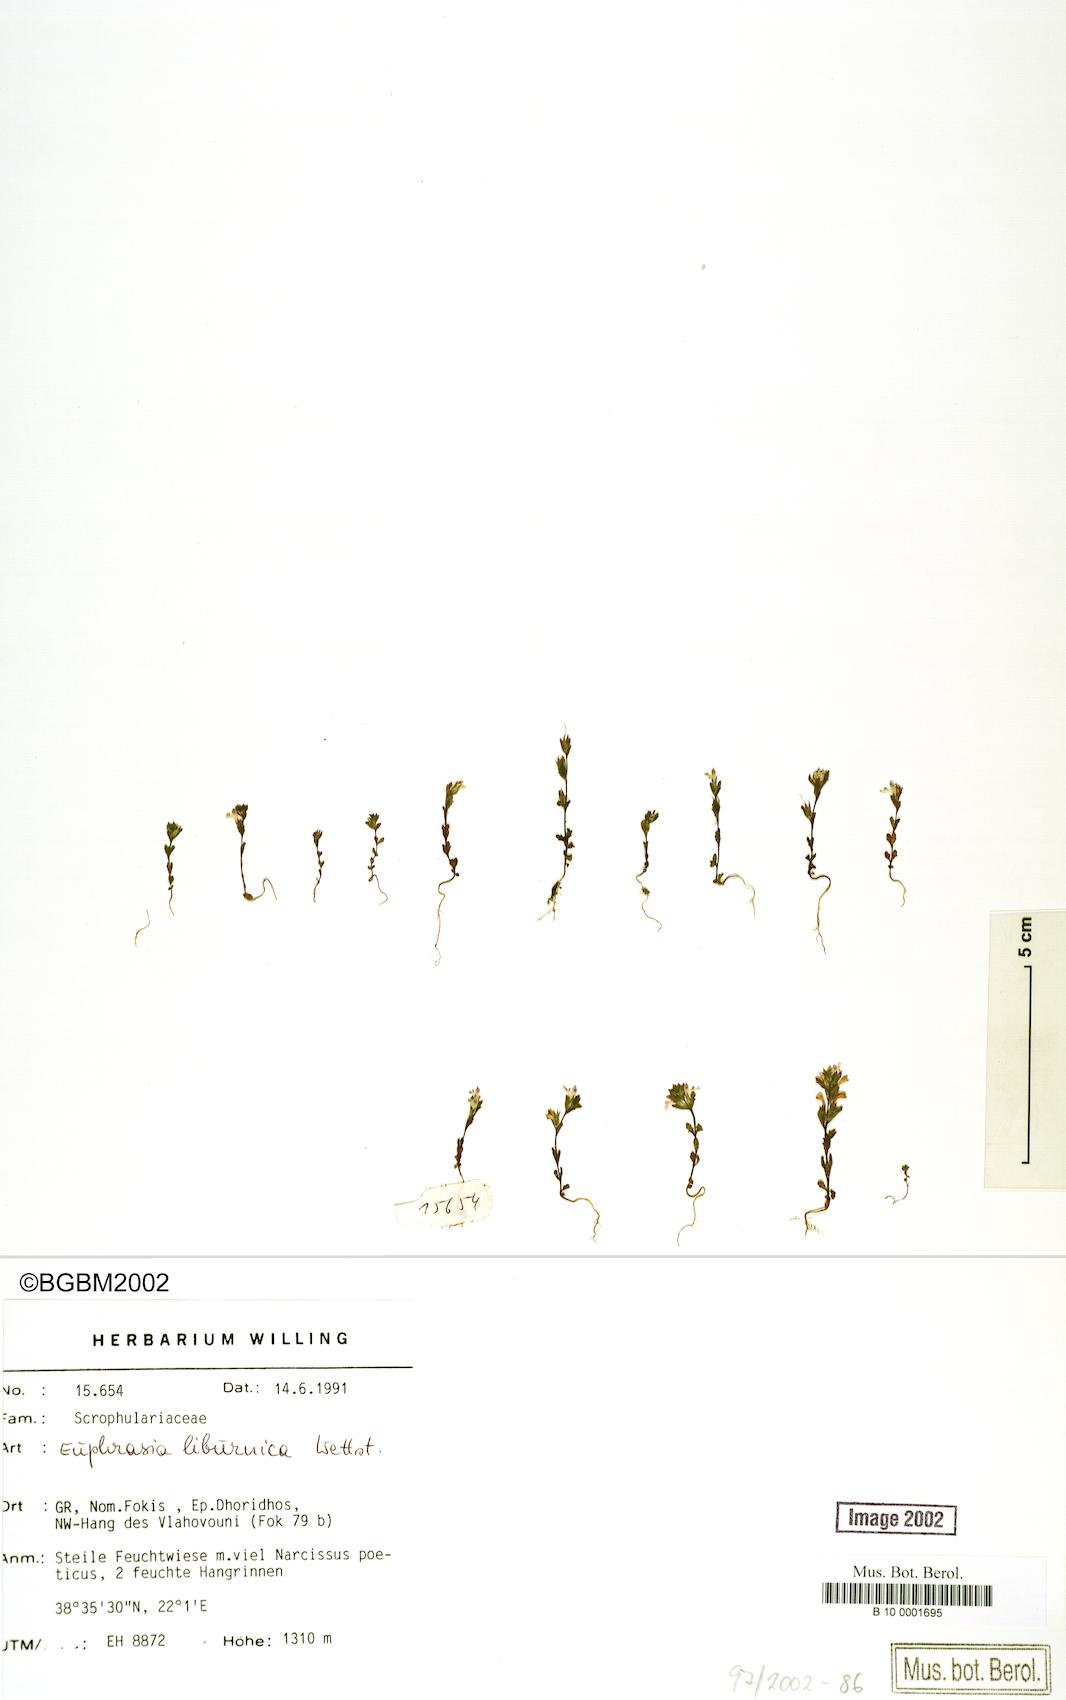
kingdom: Plantae
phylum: Tracheophyta
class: Magnoliopsida
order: Lamiales
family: Orobanchaceae
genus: Euphrasia
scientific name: Euphrasia liburnica
